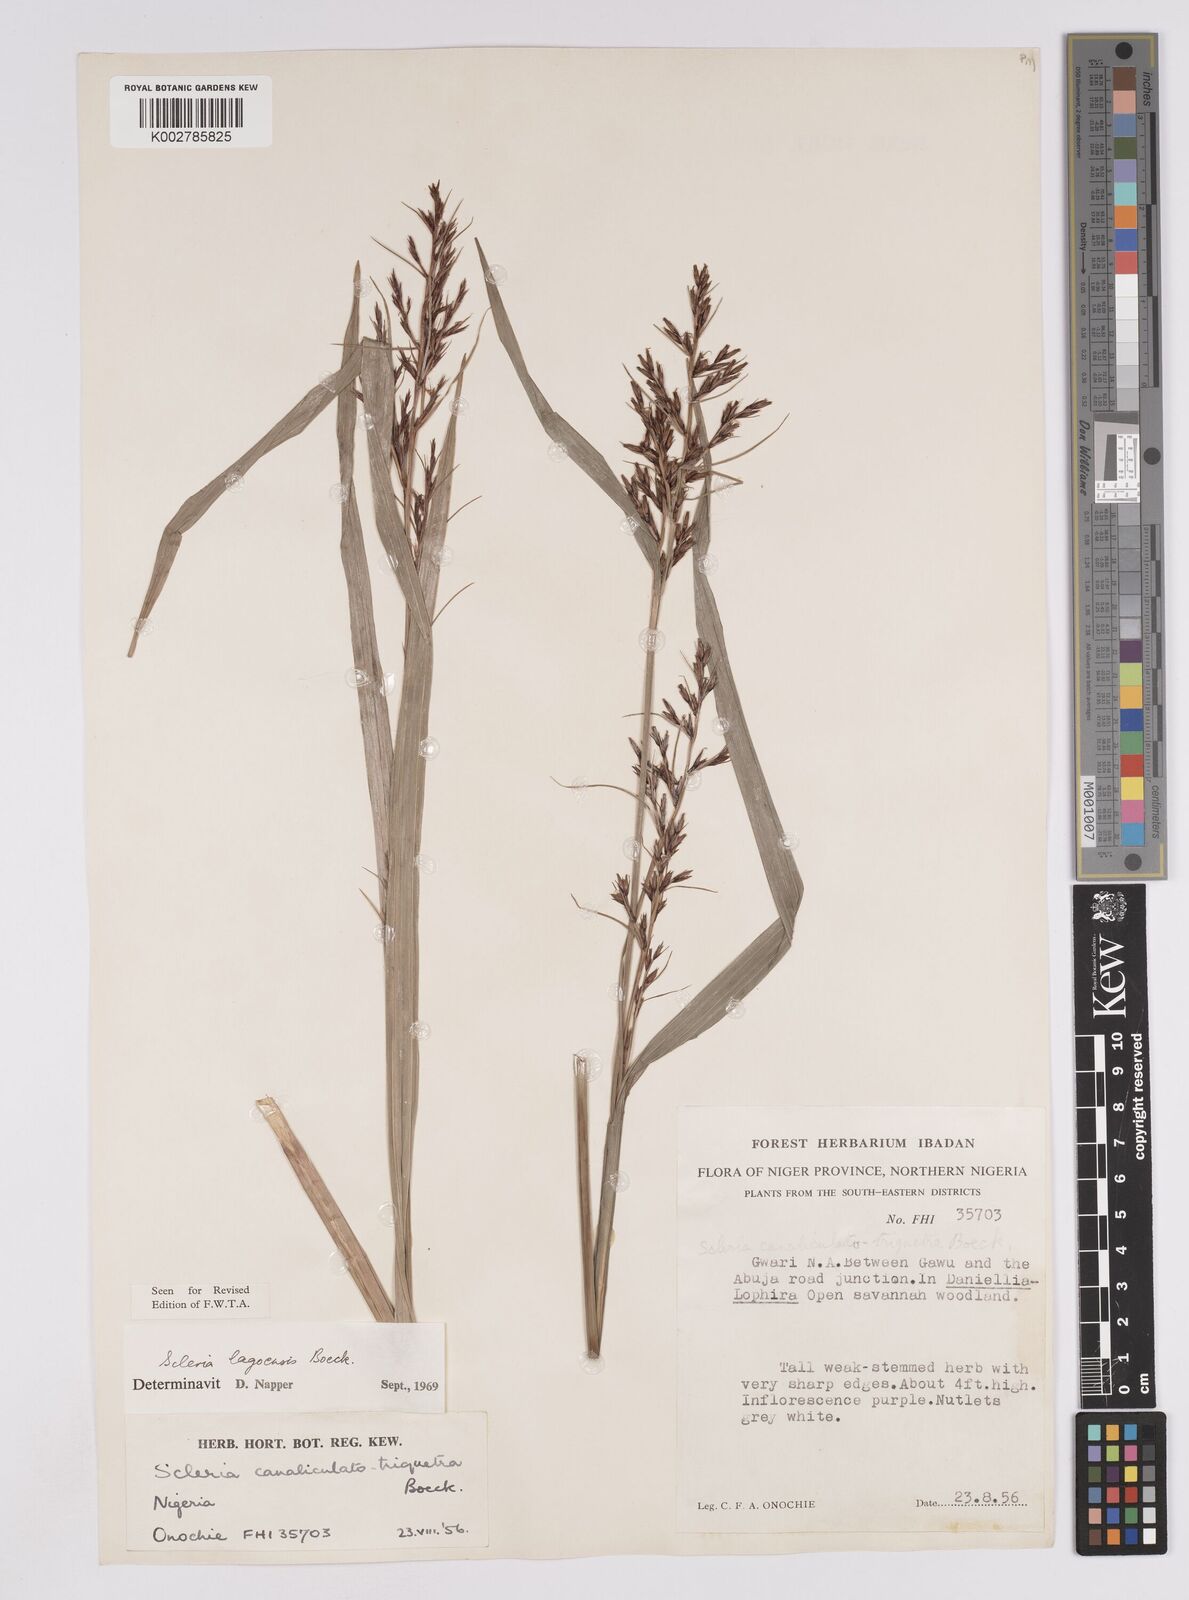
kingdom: Plantae
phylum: Tracheophyta
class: Liliopsida
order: Poales
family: Cyperaceae
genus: Scleria
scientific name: Scleria lagoensis
